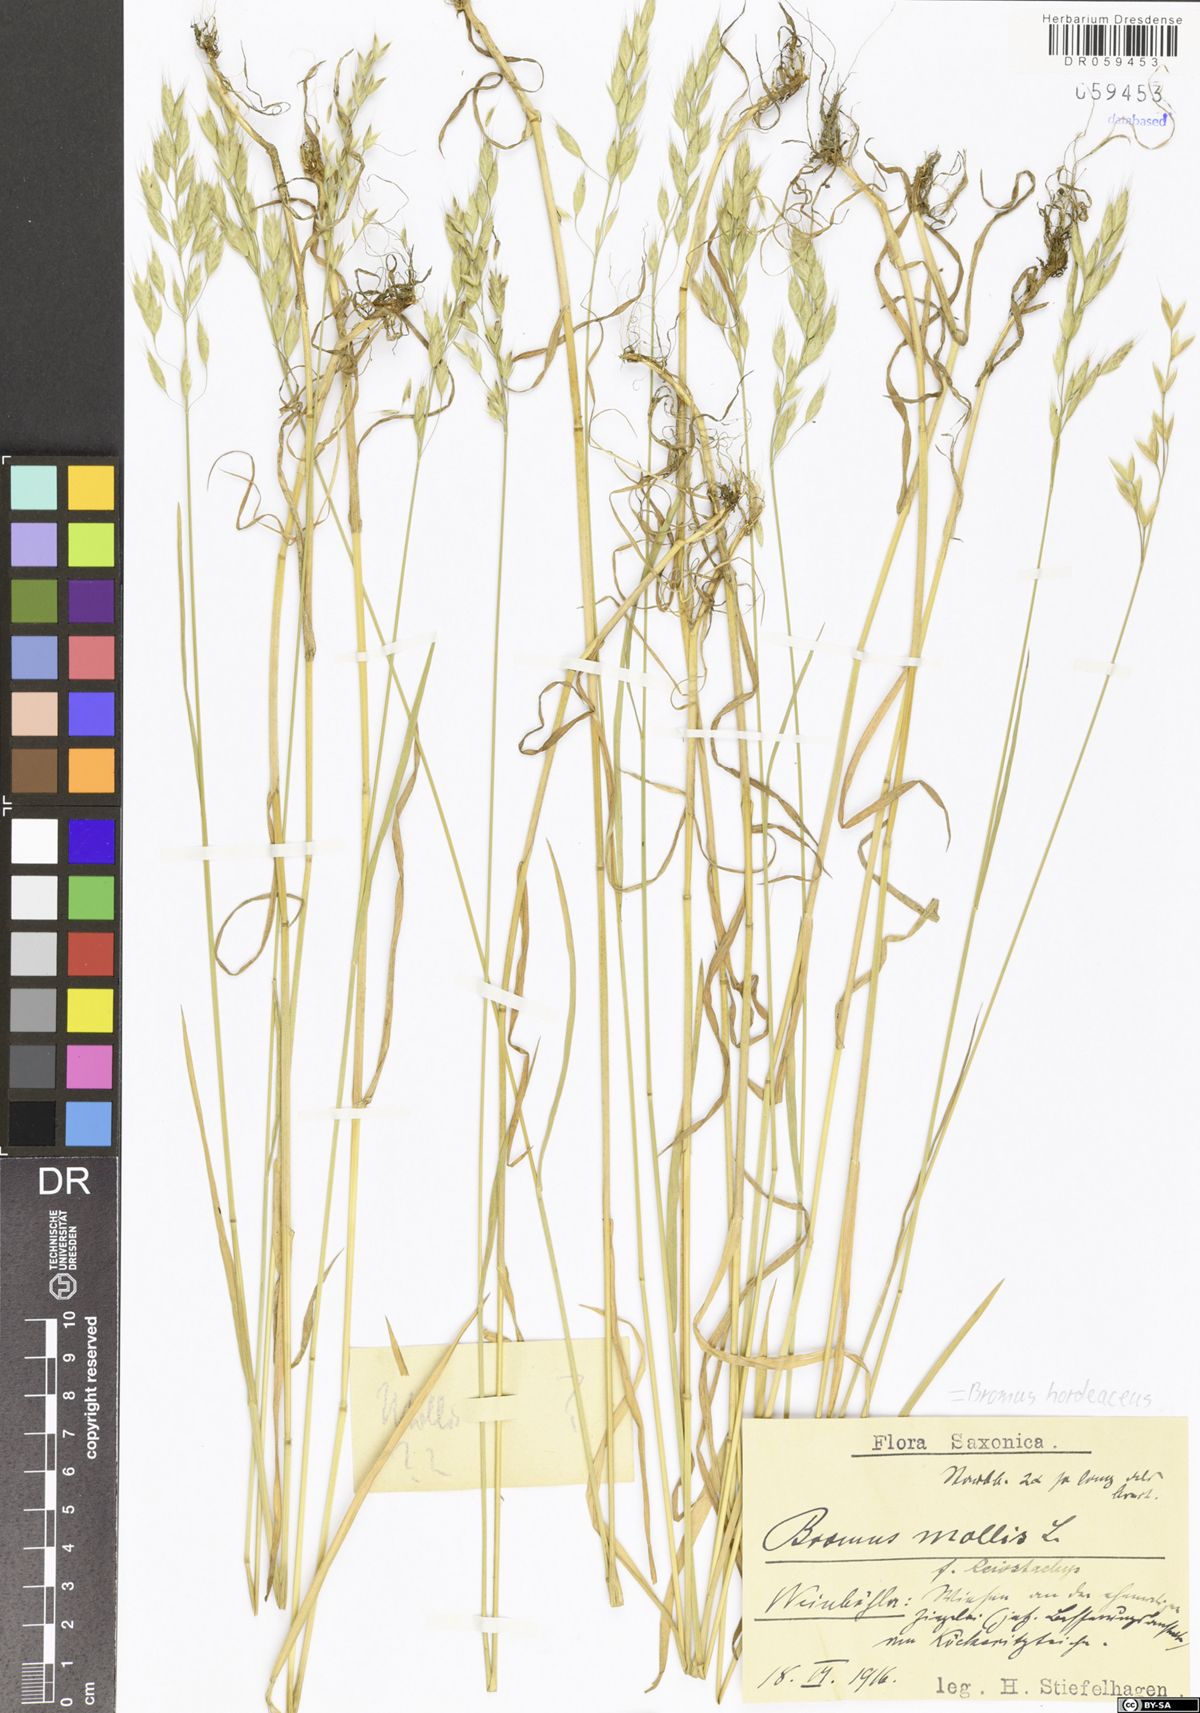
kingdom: Plantae
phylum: Tracheophyta
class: Liliopsida
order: Poales
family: Poaceae
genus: Bromus
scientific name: Bromus hordeaceus
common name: Soft brome
